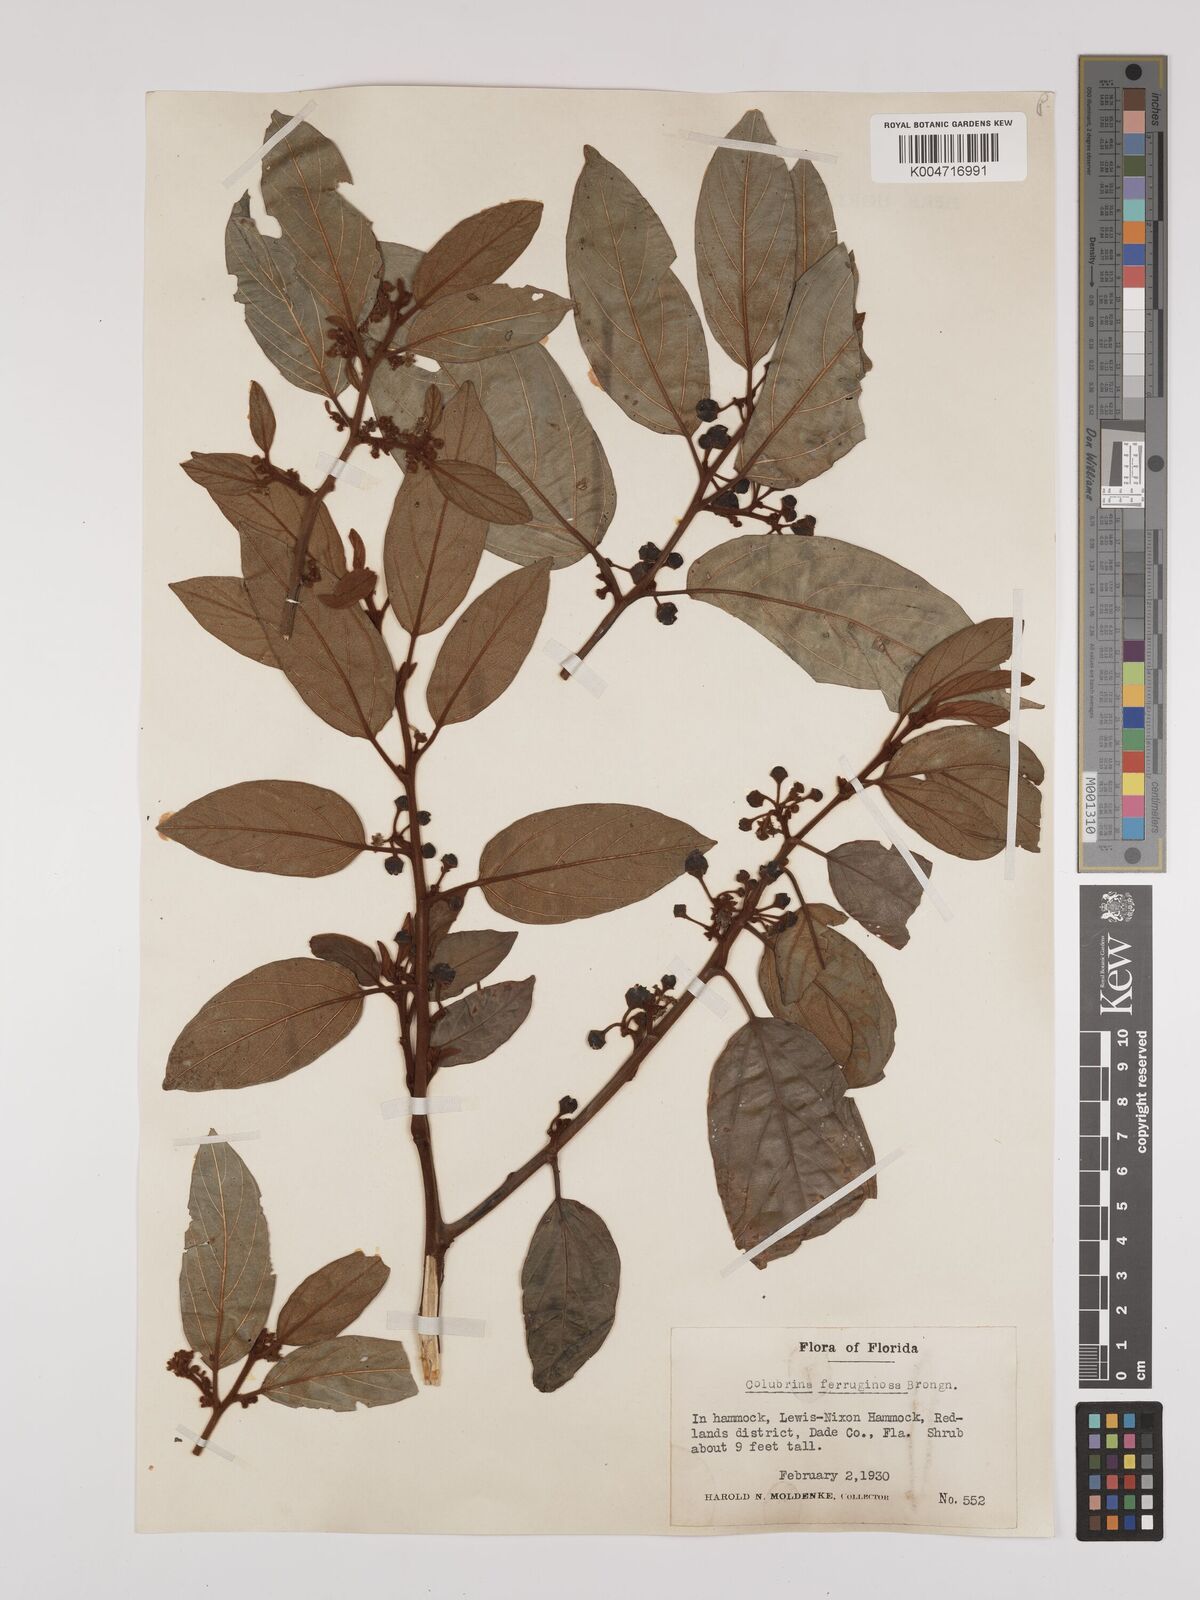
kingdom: Plantae
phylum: Tracheophyta
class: Magnoliopsida
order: Rosales
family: Rhamnaceae
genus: Colubrina
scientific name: Colubrina arborescens
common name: Wild coffee
